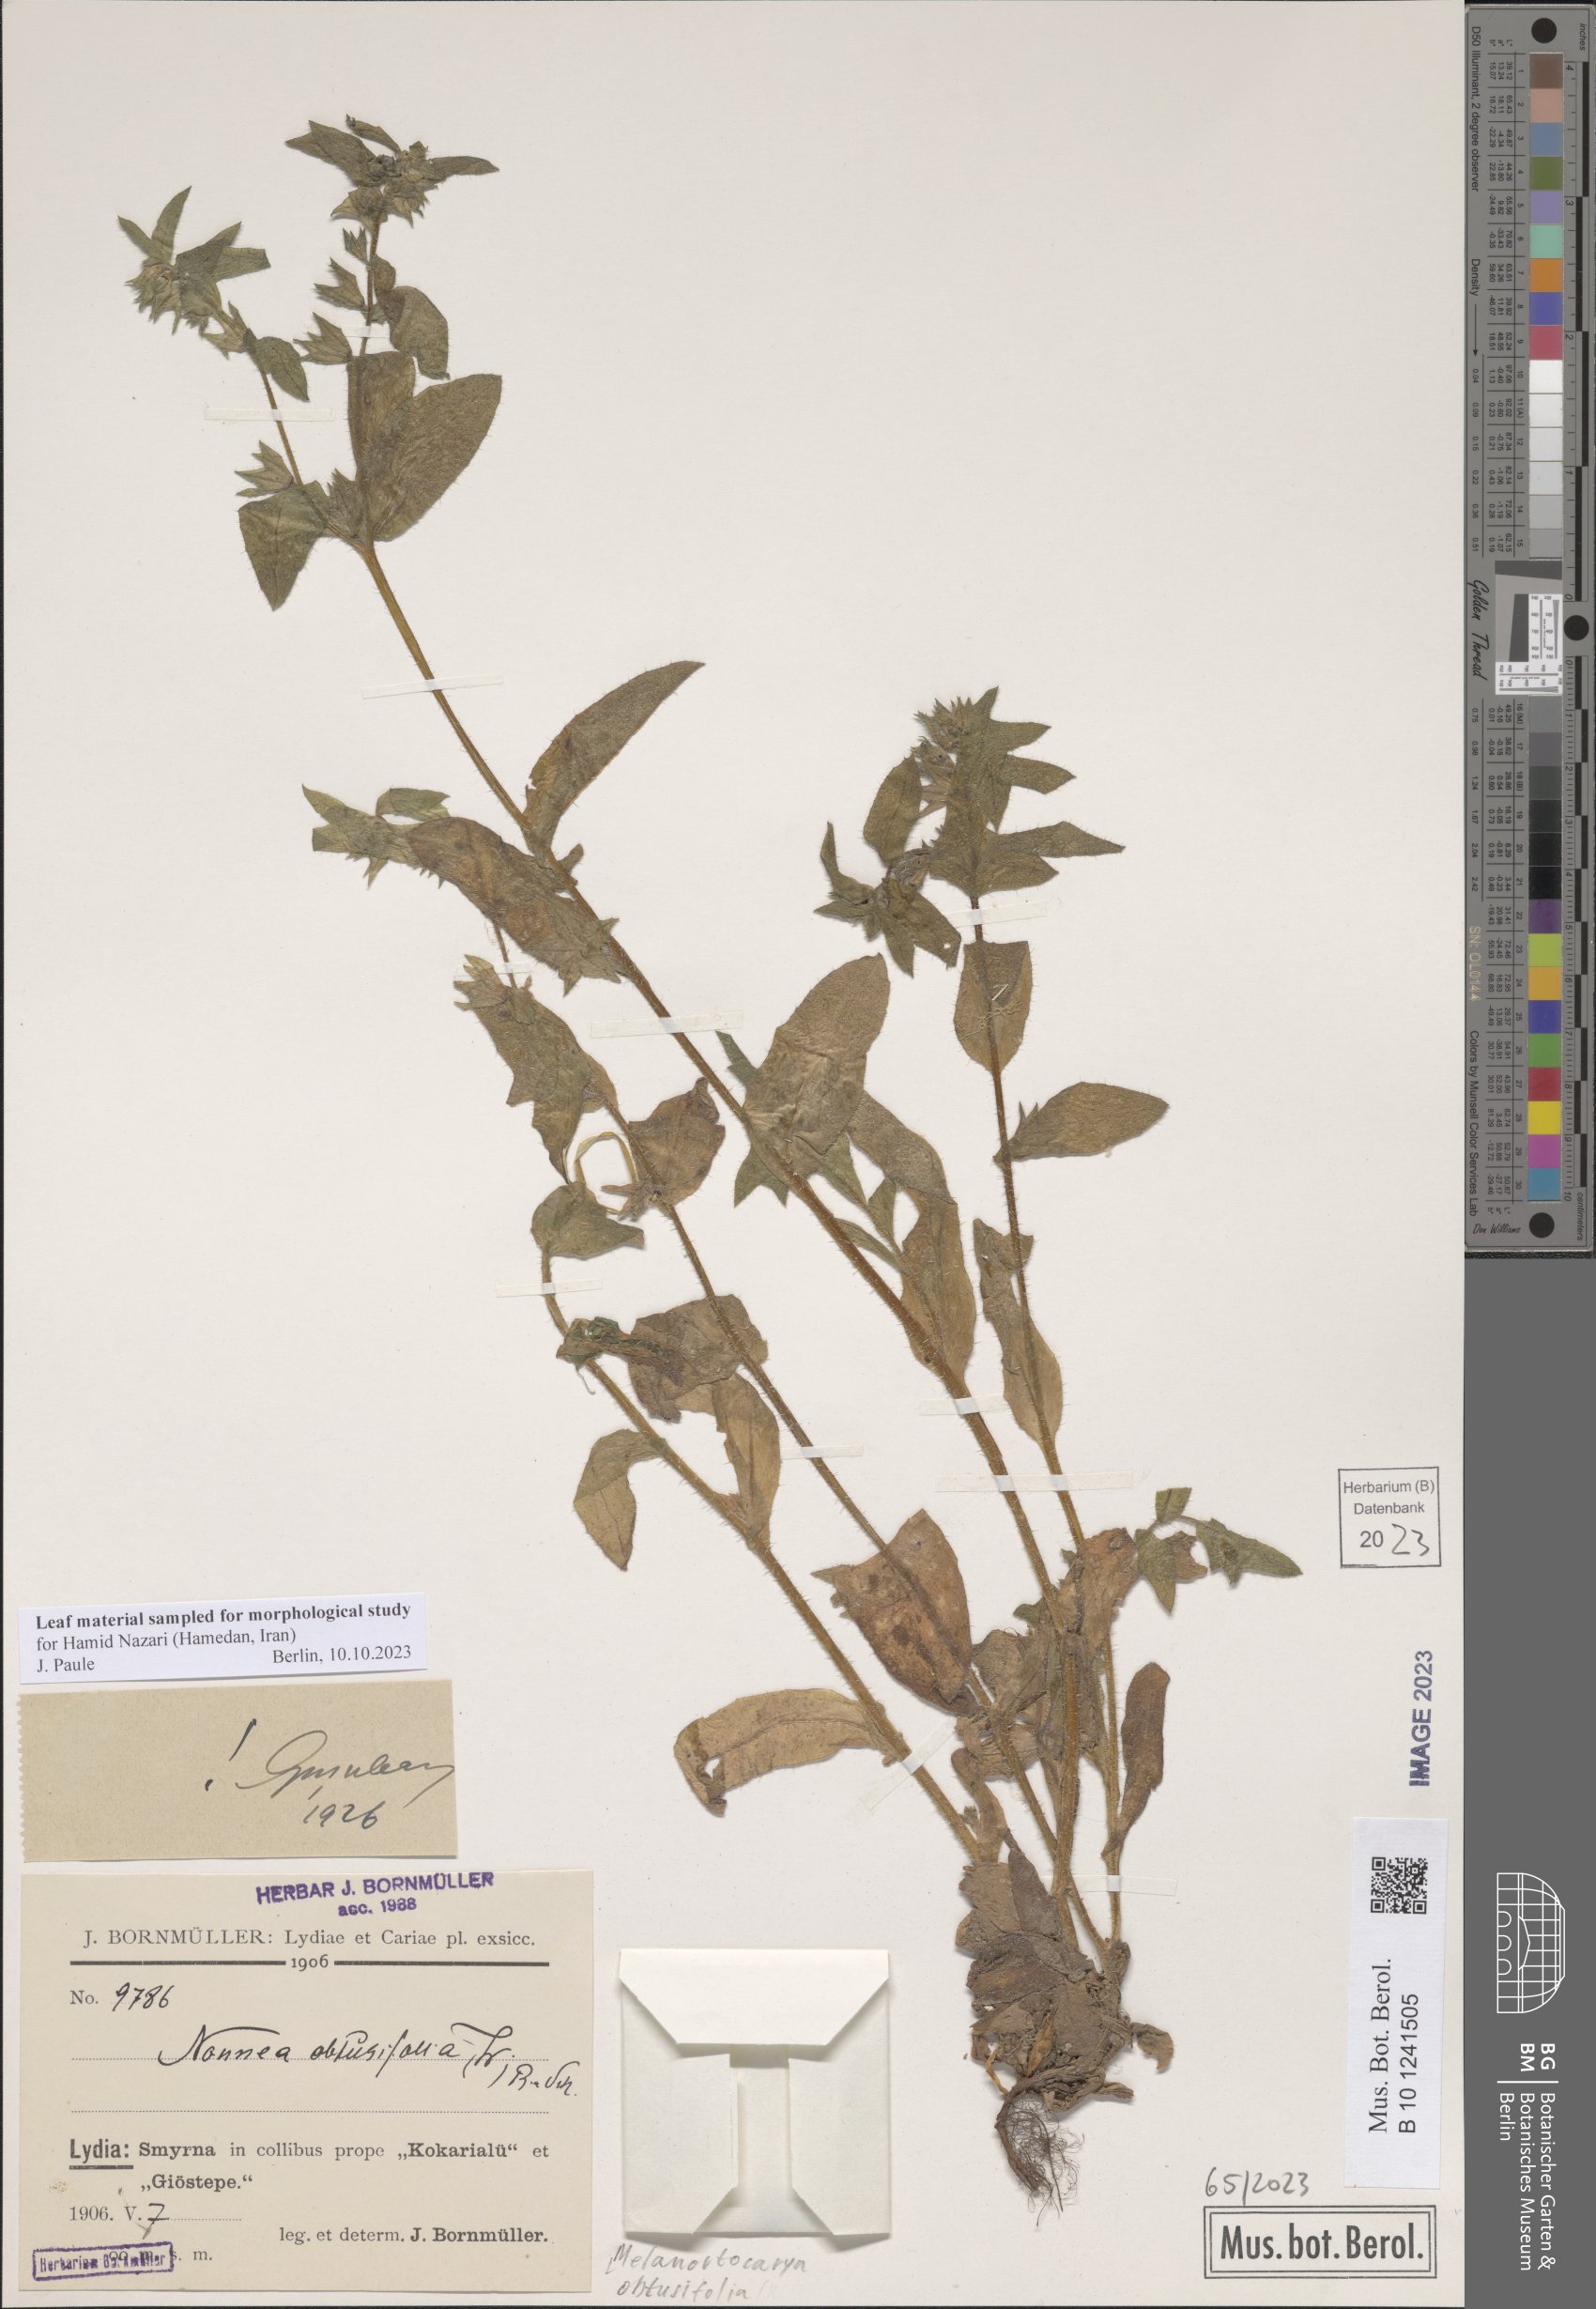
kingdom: Plantae
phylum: Tracheophyta
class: Magnoliopsida
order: Boraginales
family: Boraginaceae
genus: Melanortocarya
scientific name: Melanortocarya obtusifolia
